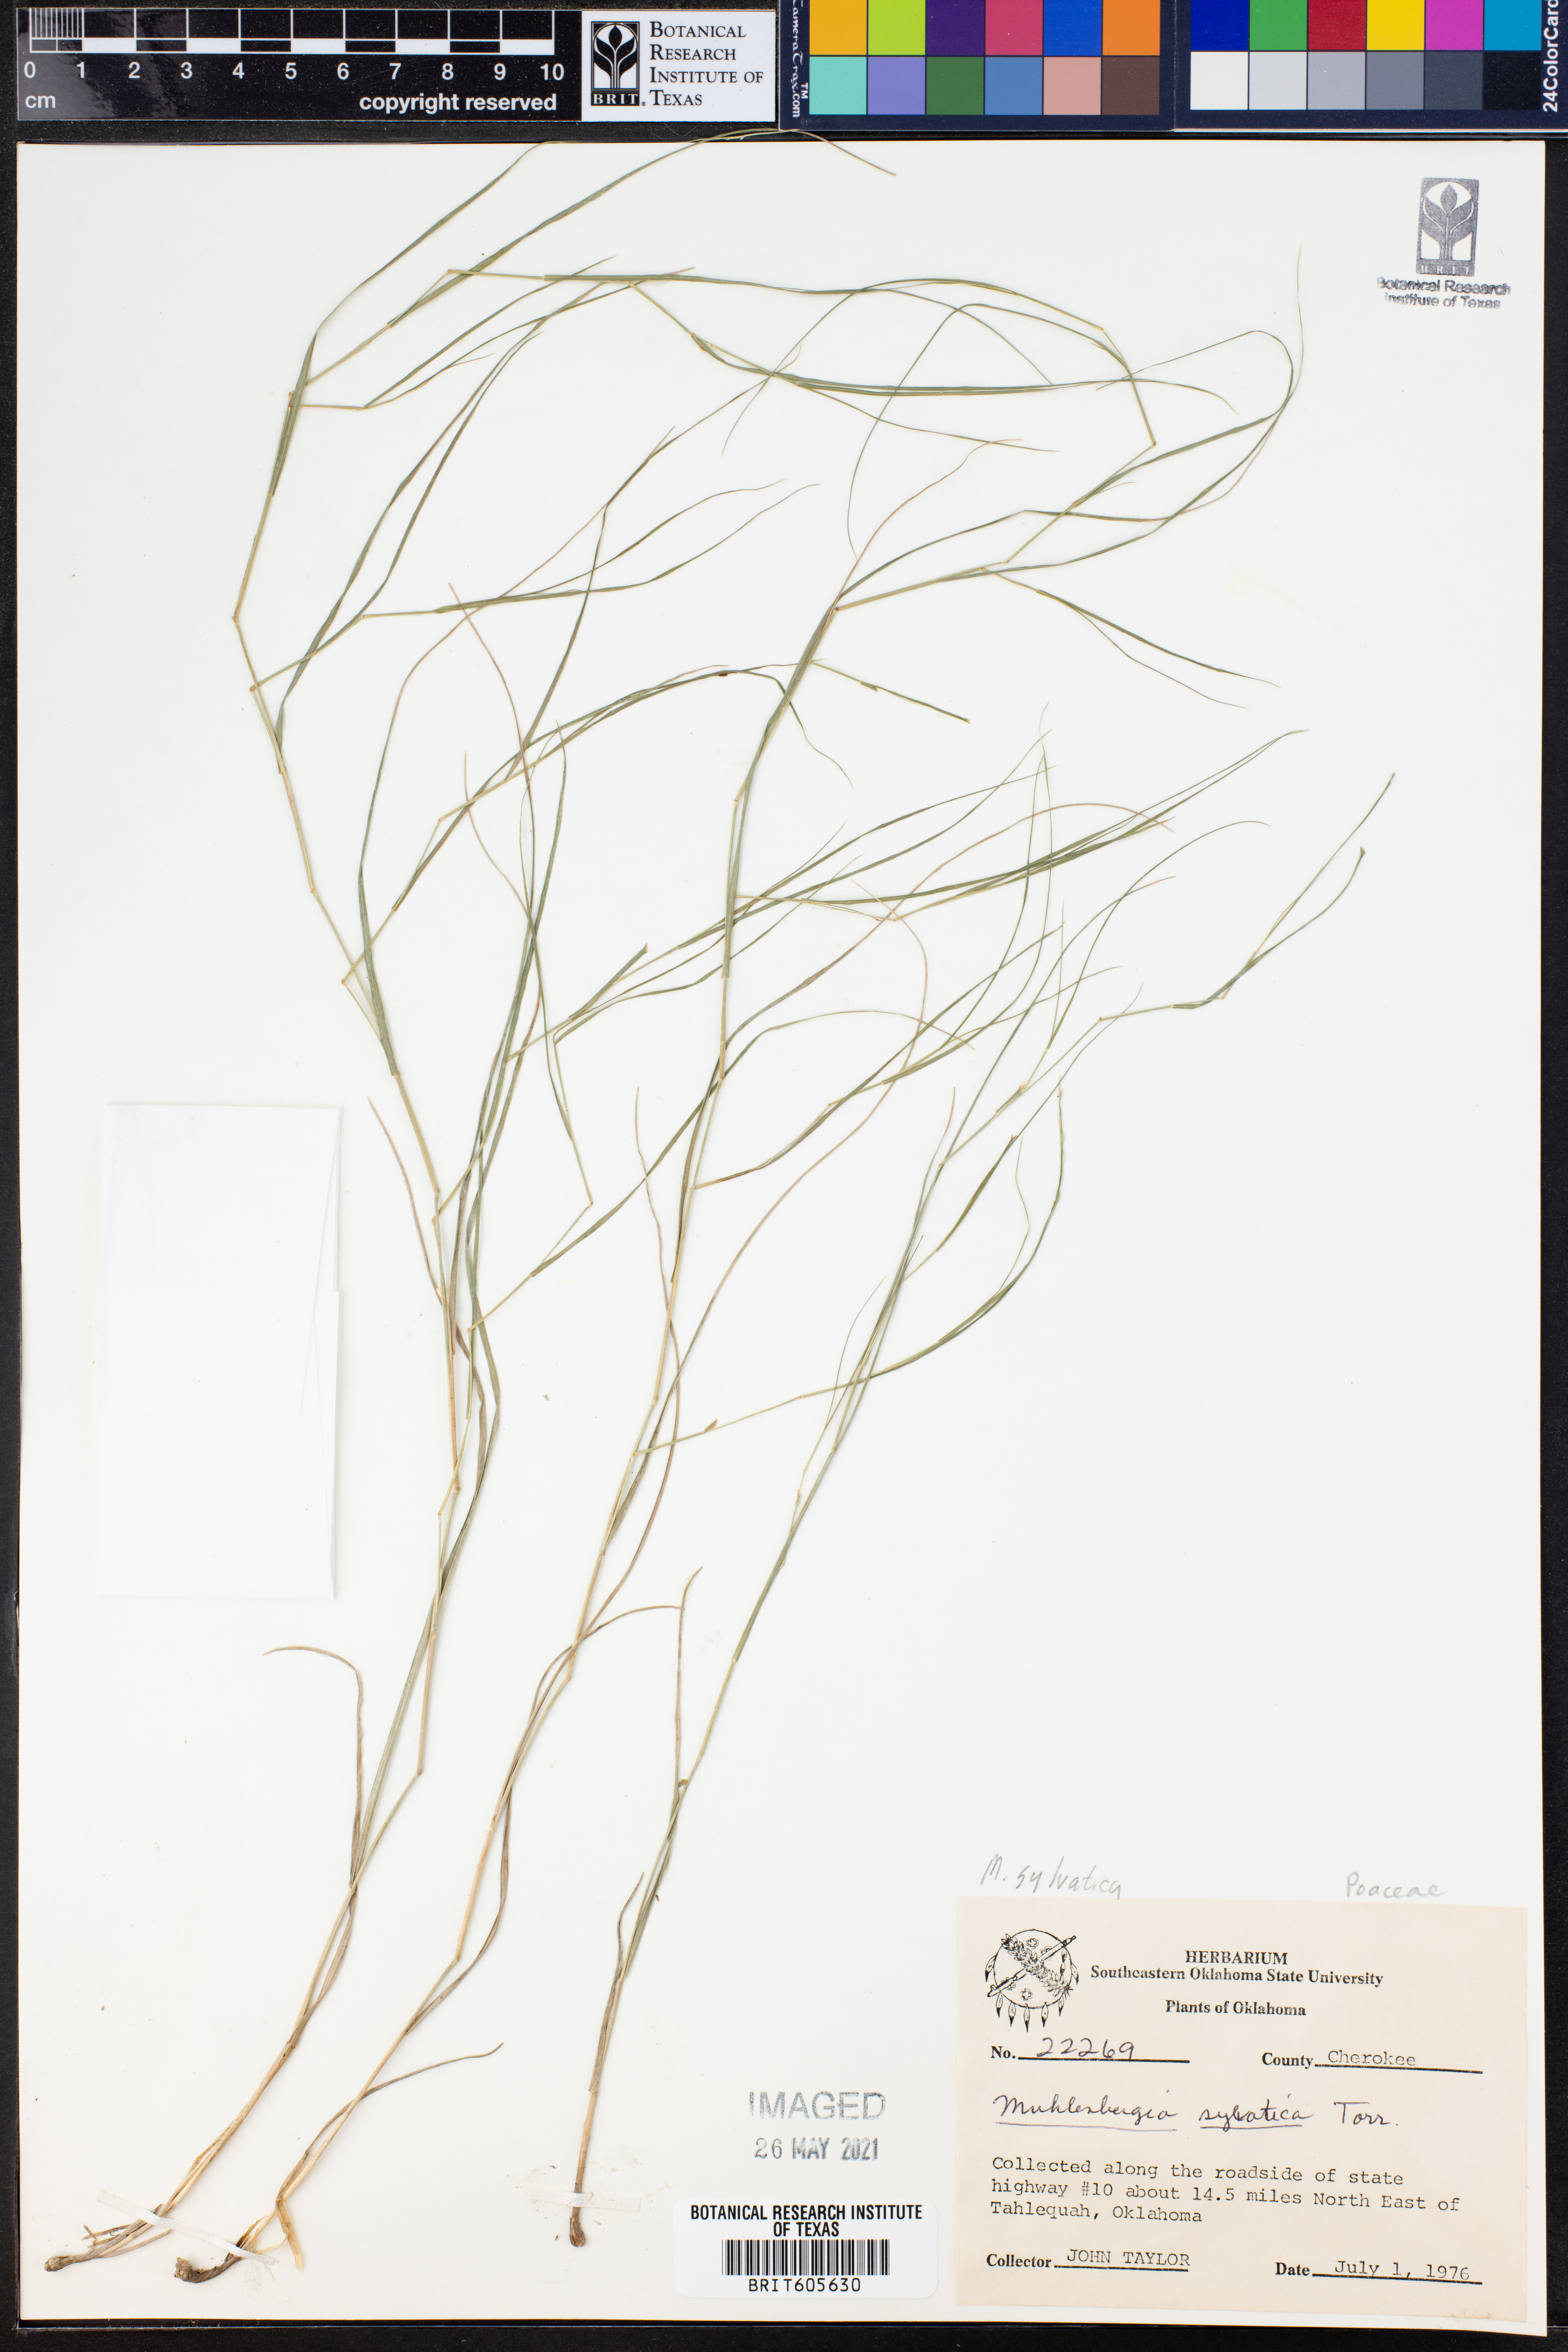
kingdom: Plantae
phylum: Tracheophyta
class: Liliopsida
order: Poales
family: Poaceae
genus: Muhlenbergia
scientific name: Muhlenbergia sylvatica
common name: Woodland muhly
